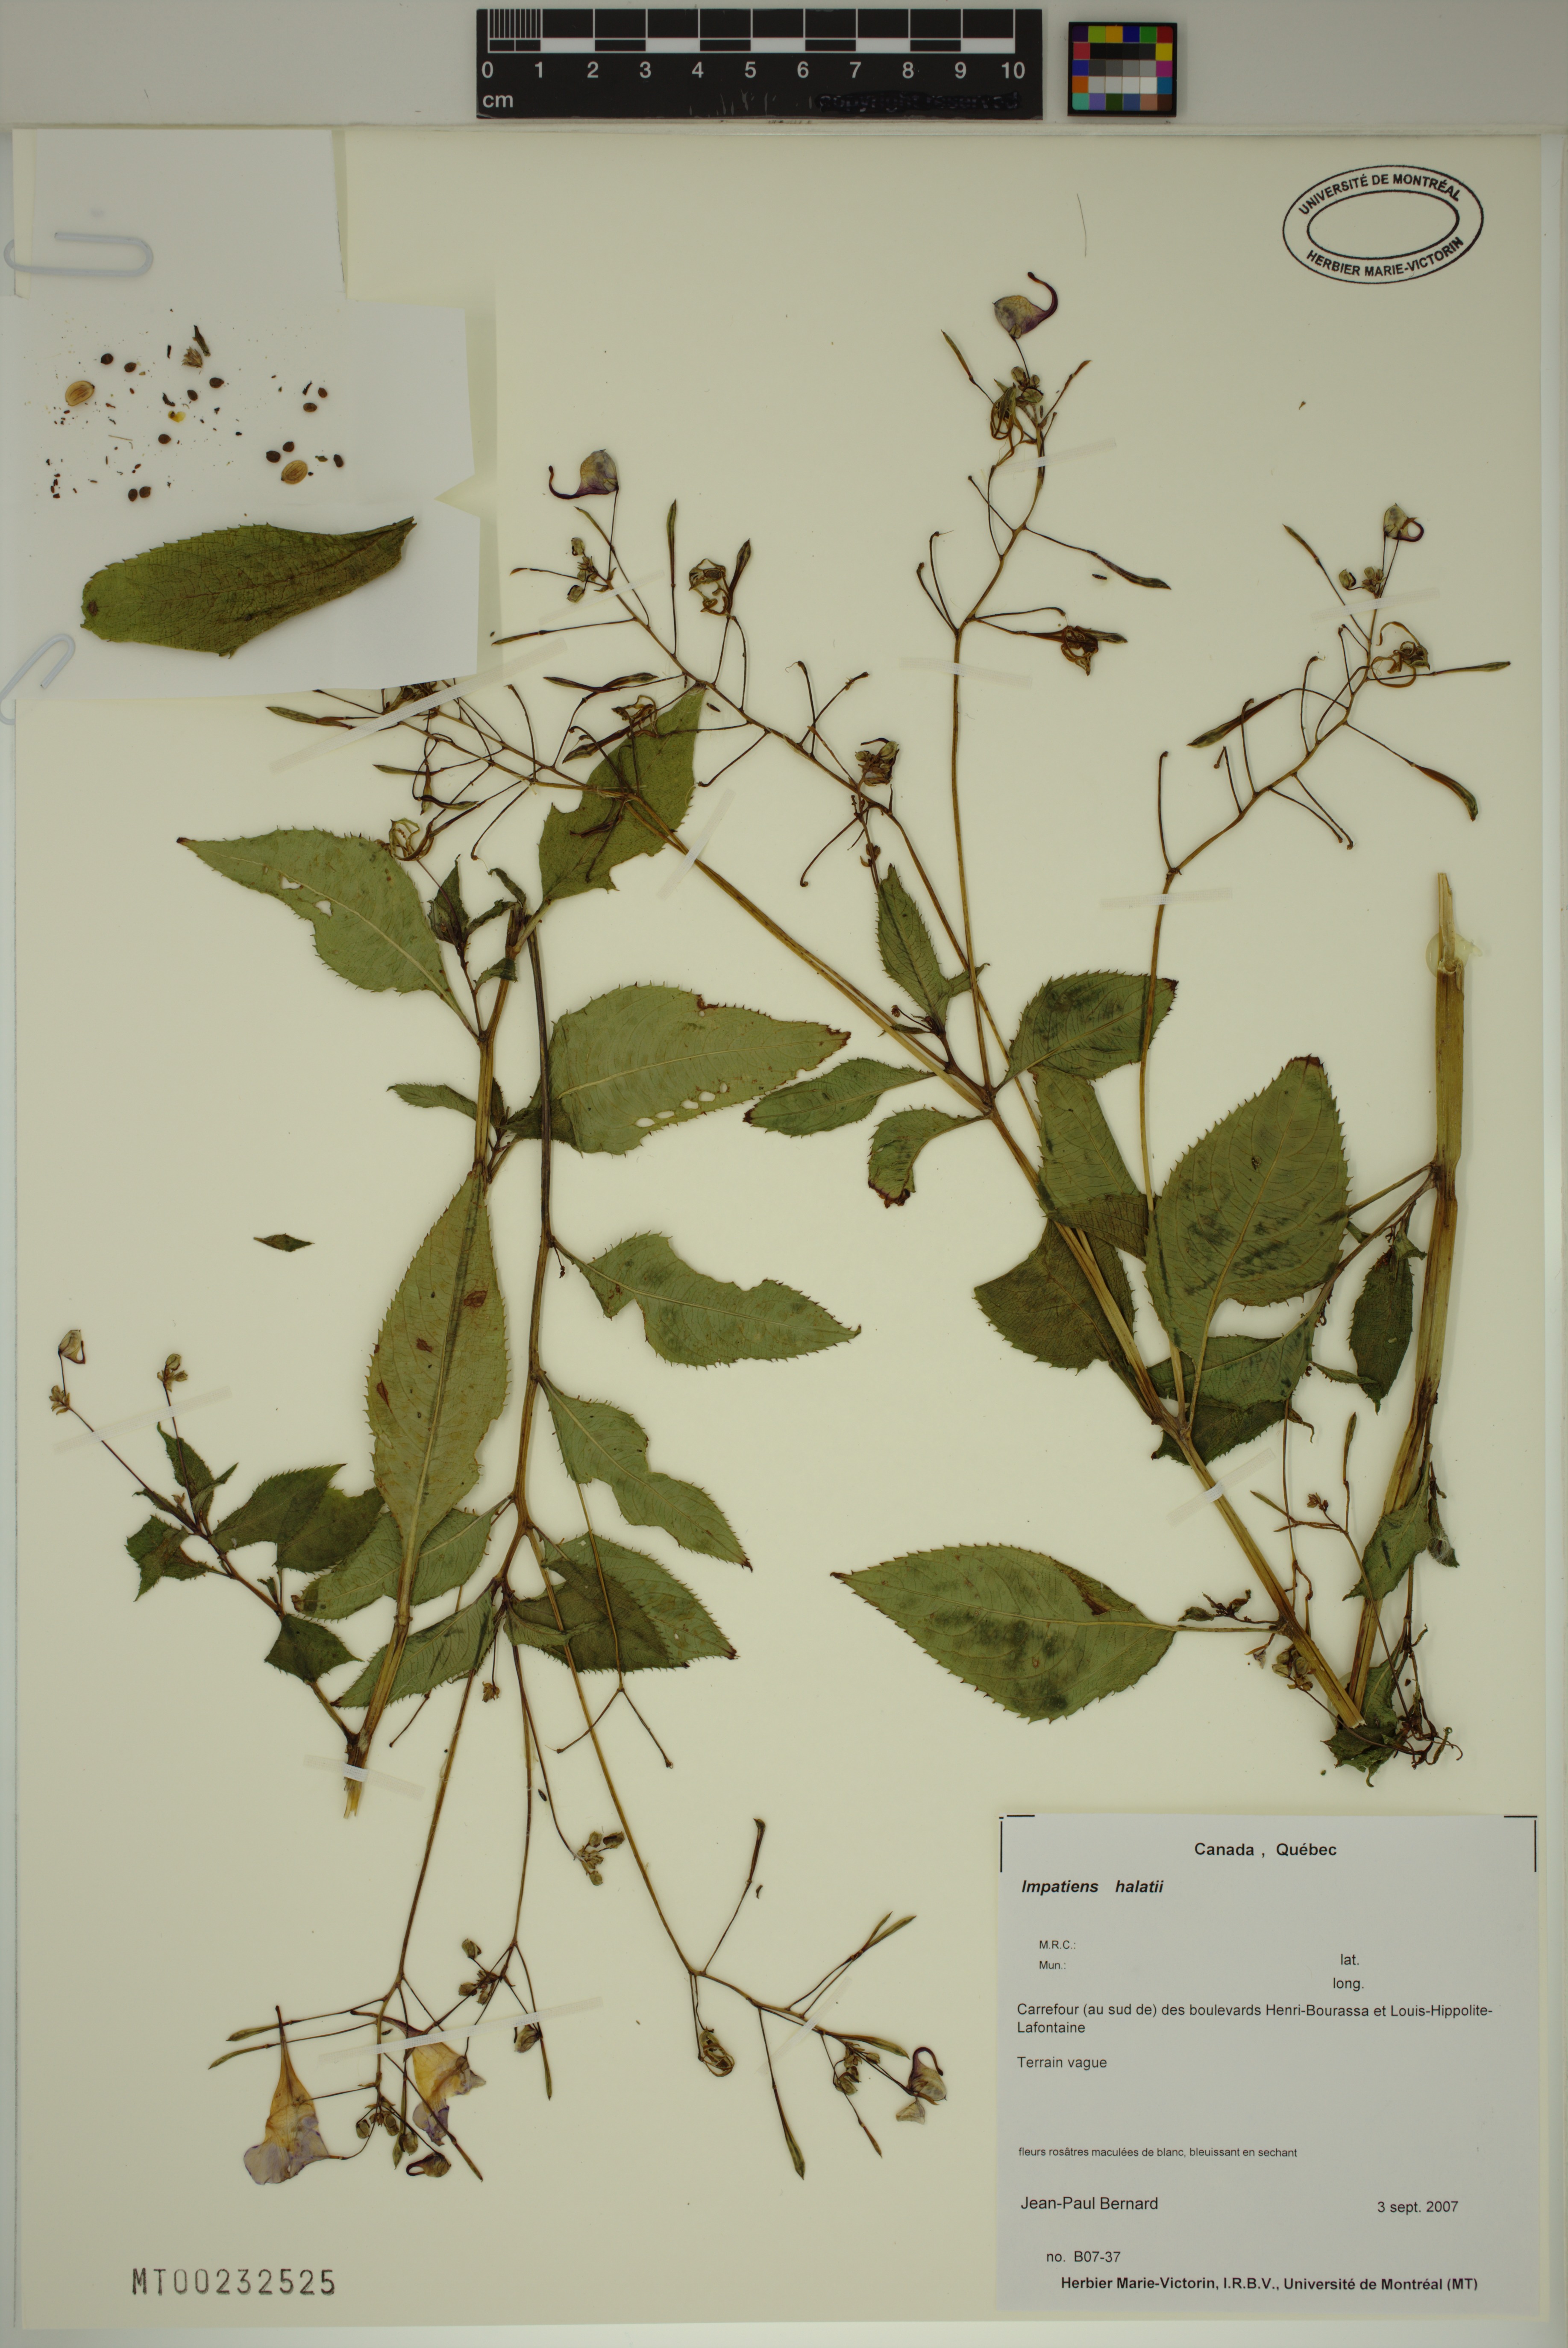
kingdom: Plantae
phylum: Tracheophyta
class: Magnoliopsida
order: Ericales
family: Balsaminaceae
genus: Impatiens
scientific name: Impatiens
